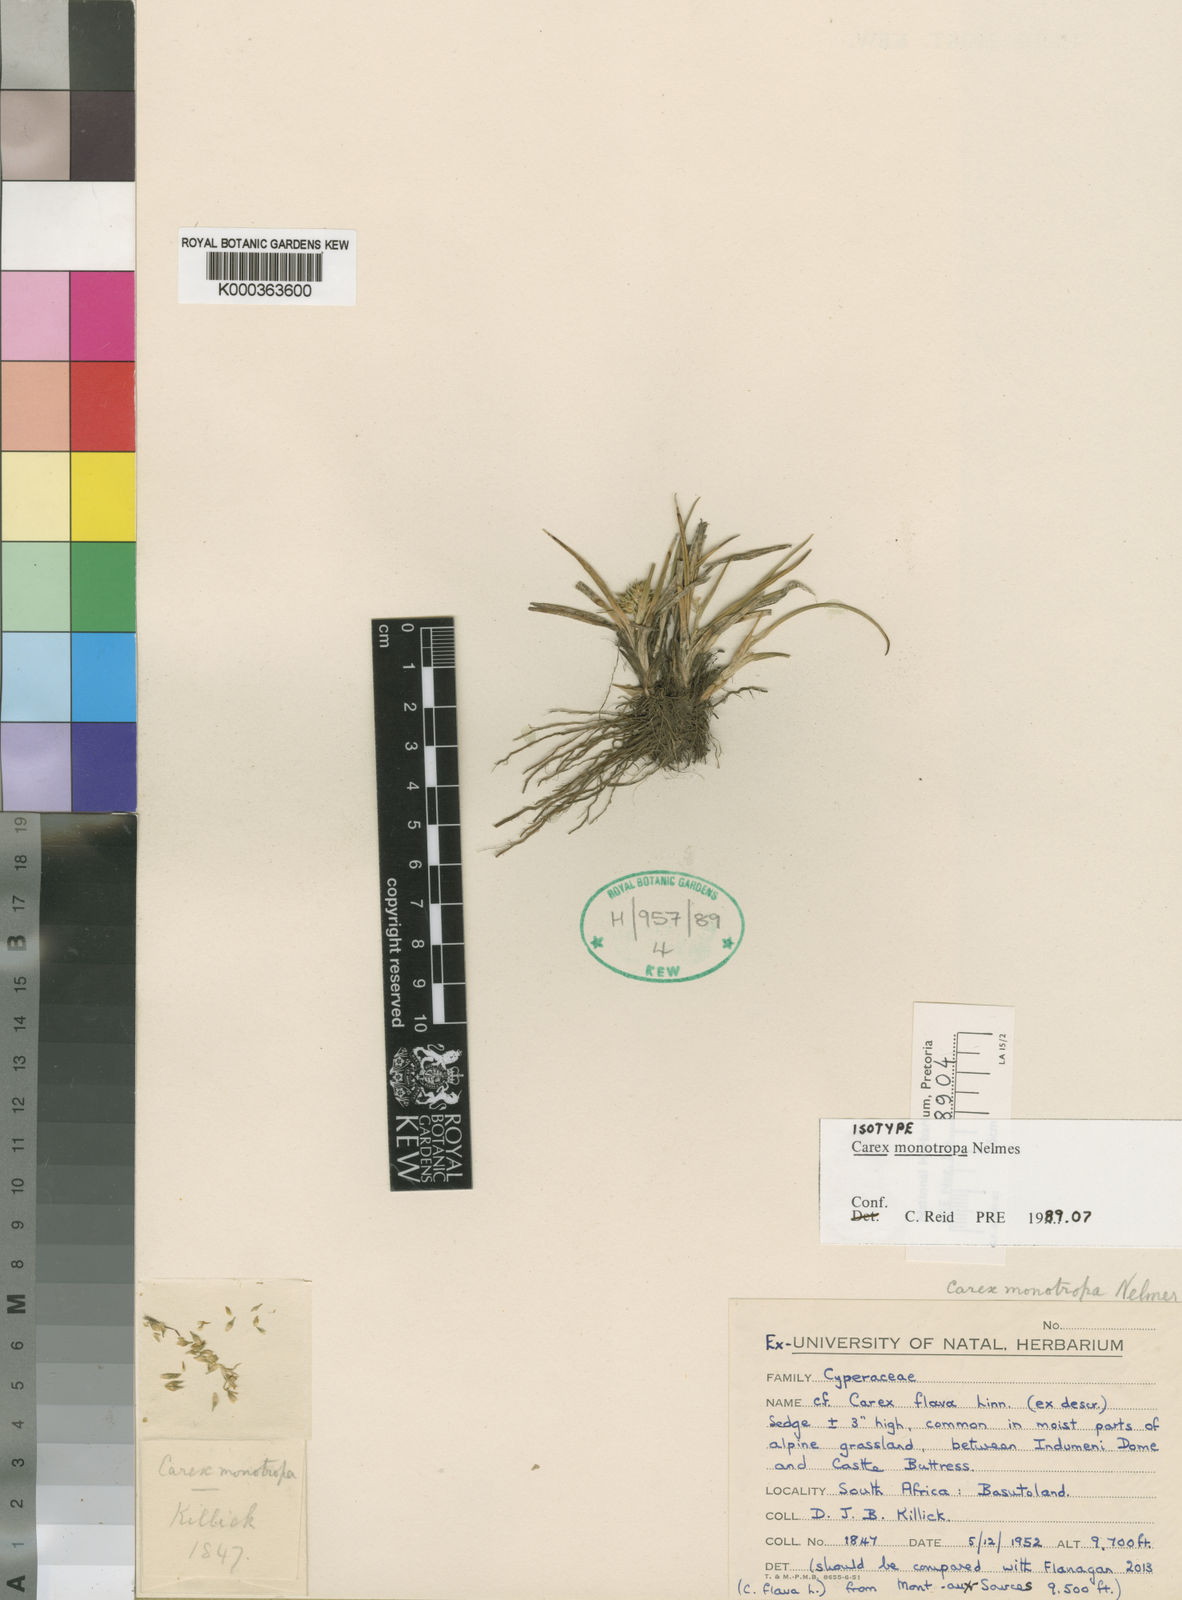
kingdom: Plantae
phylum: Tracheophyta
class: Liliopsida
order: Poales
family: Cyperaceae
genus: Carex
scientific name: Carex monotropa
